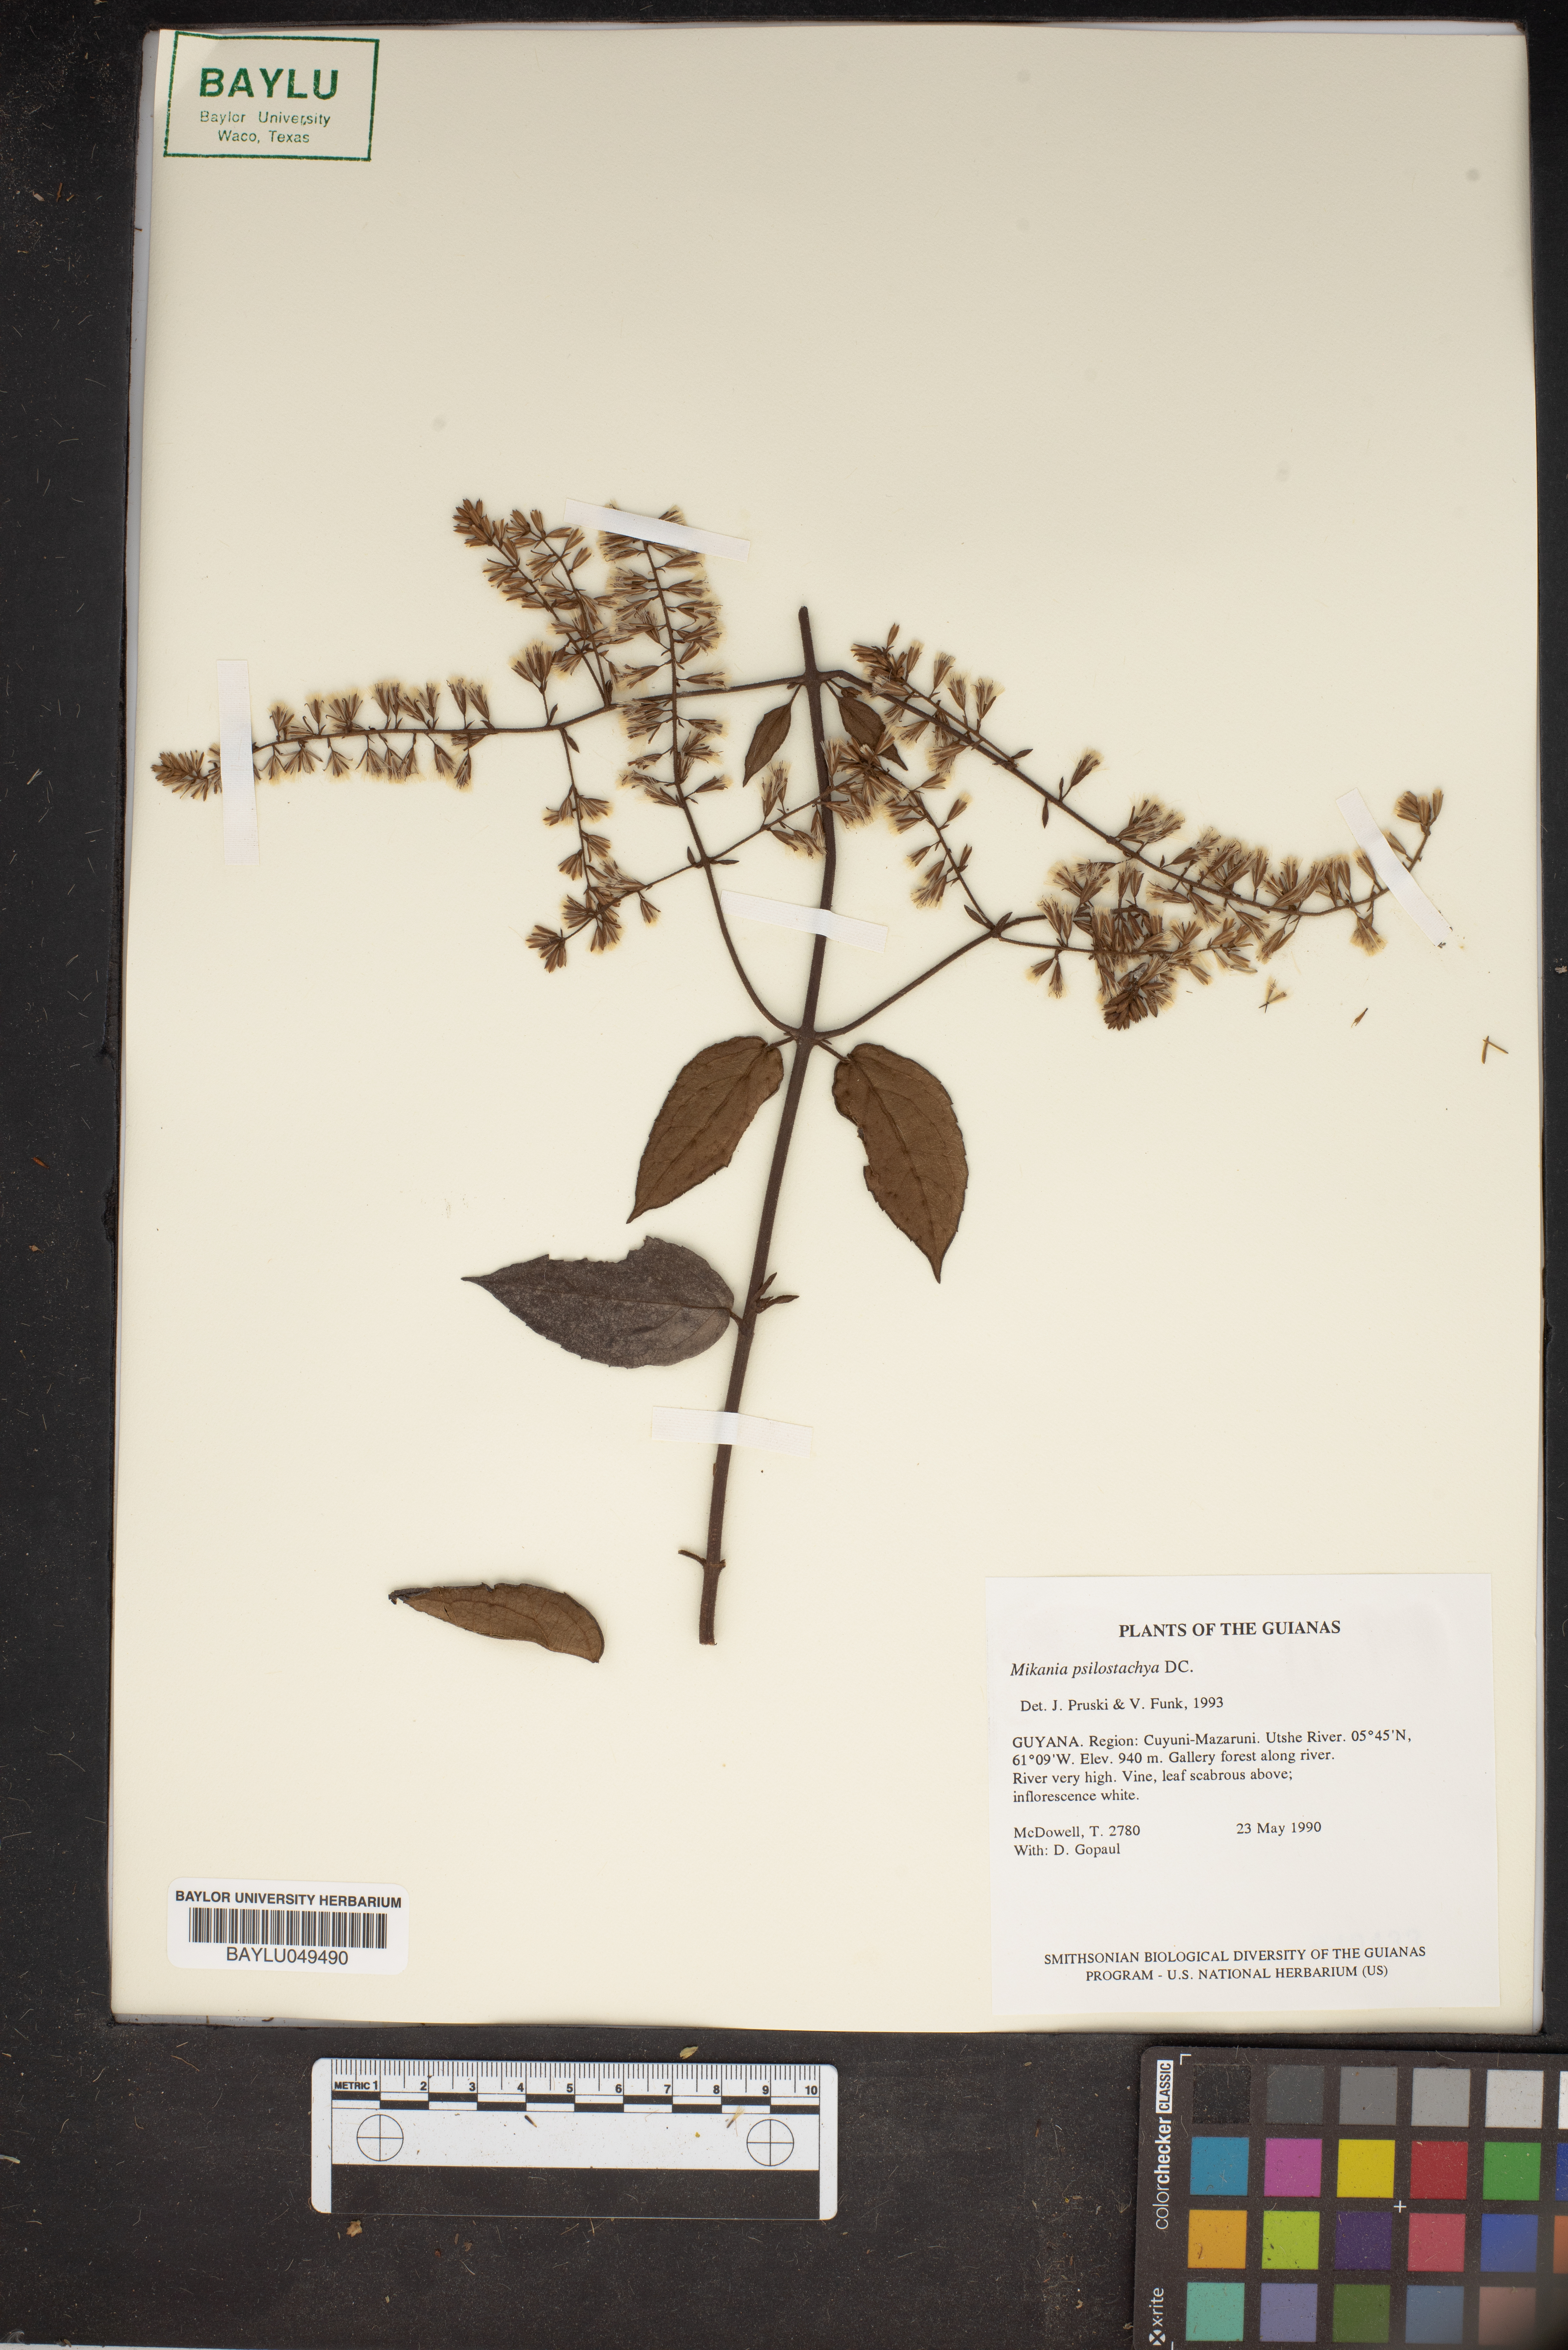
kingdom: Plantae
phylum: Tracheophyta
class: Magnoliopsida
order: Asterales
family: Asteraceae
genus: Mikania
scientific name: Mikania psilostachya
